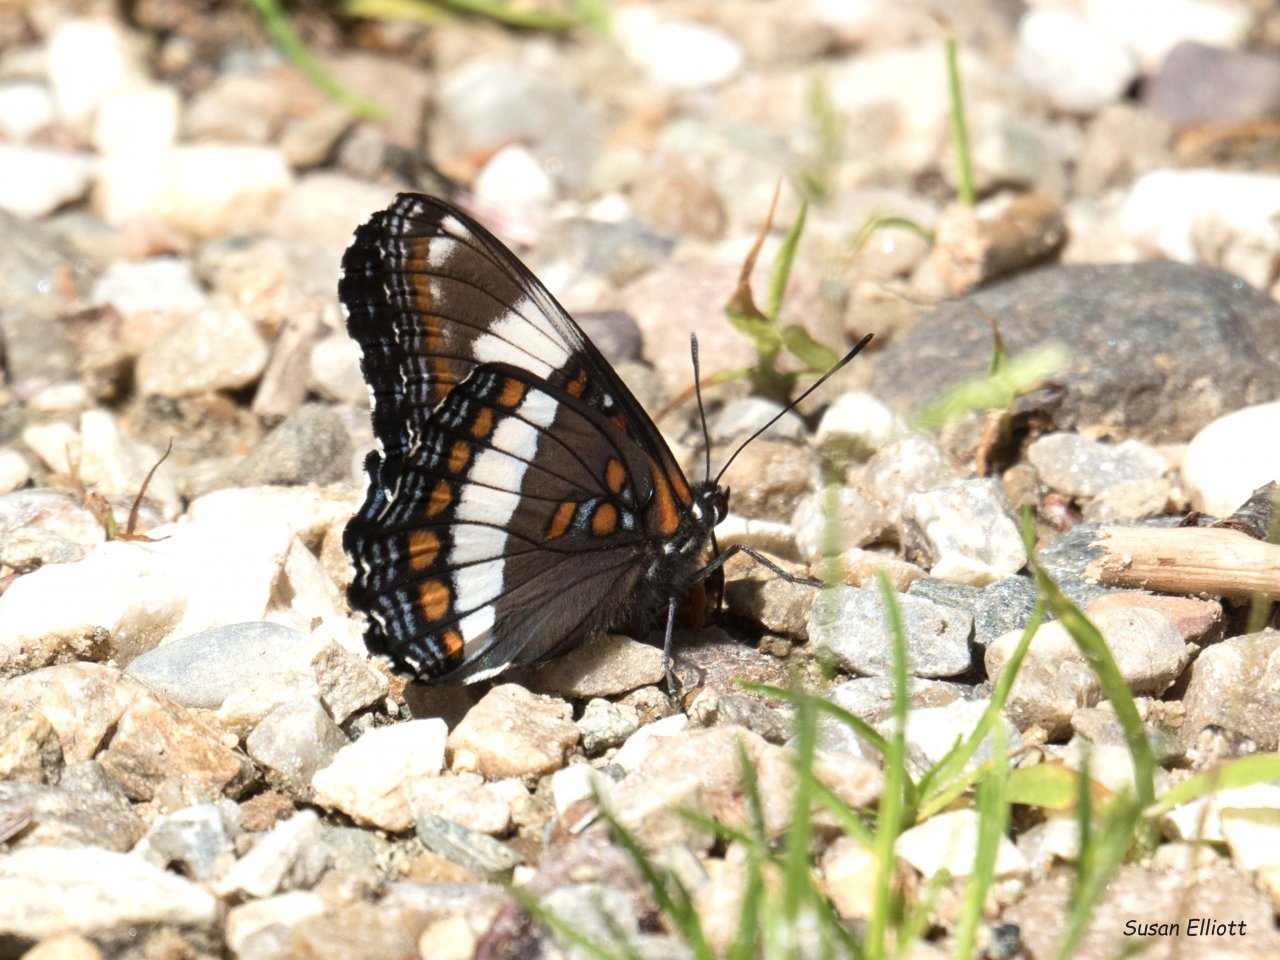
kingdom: Animalia
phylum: Arthropoda
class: Insecta
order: Lepidoptera
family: Nymphalidae
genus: Limenitis
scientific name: Limenitis arthemis
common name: Red-spotted Admiral
